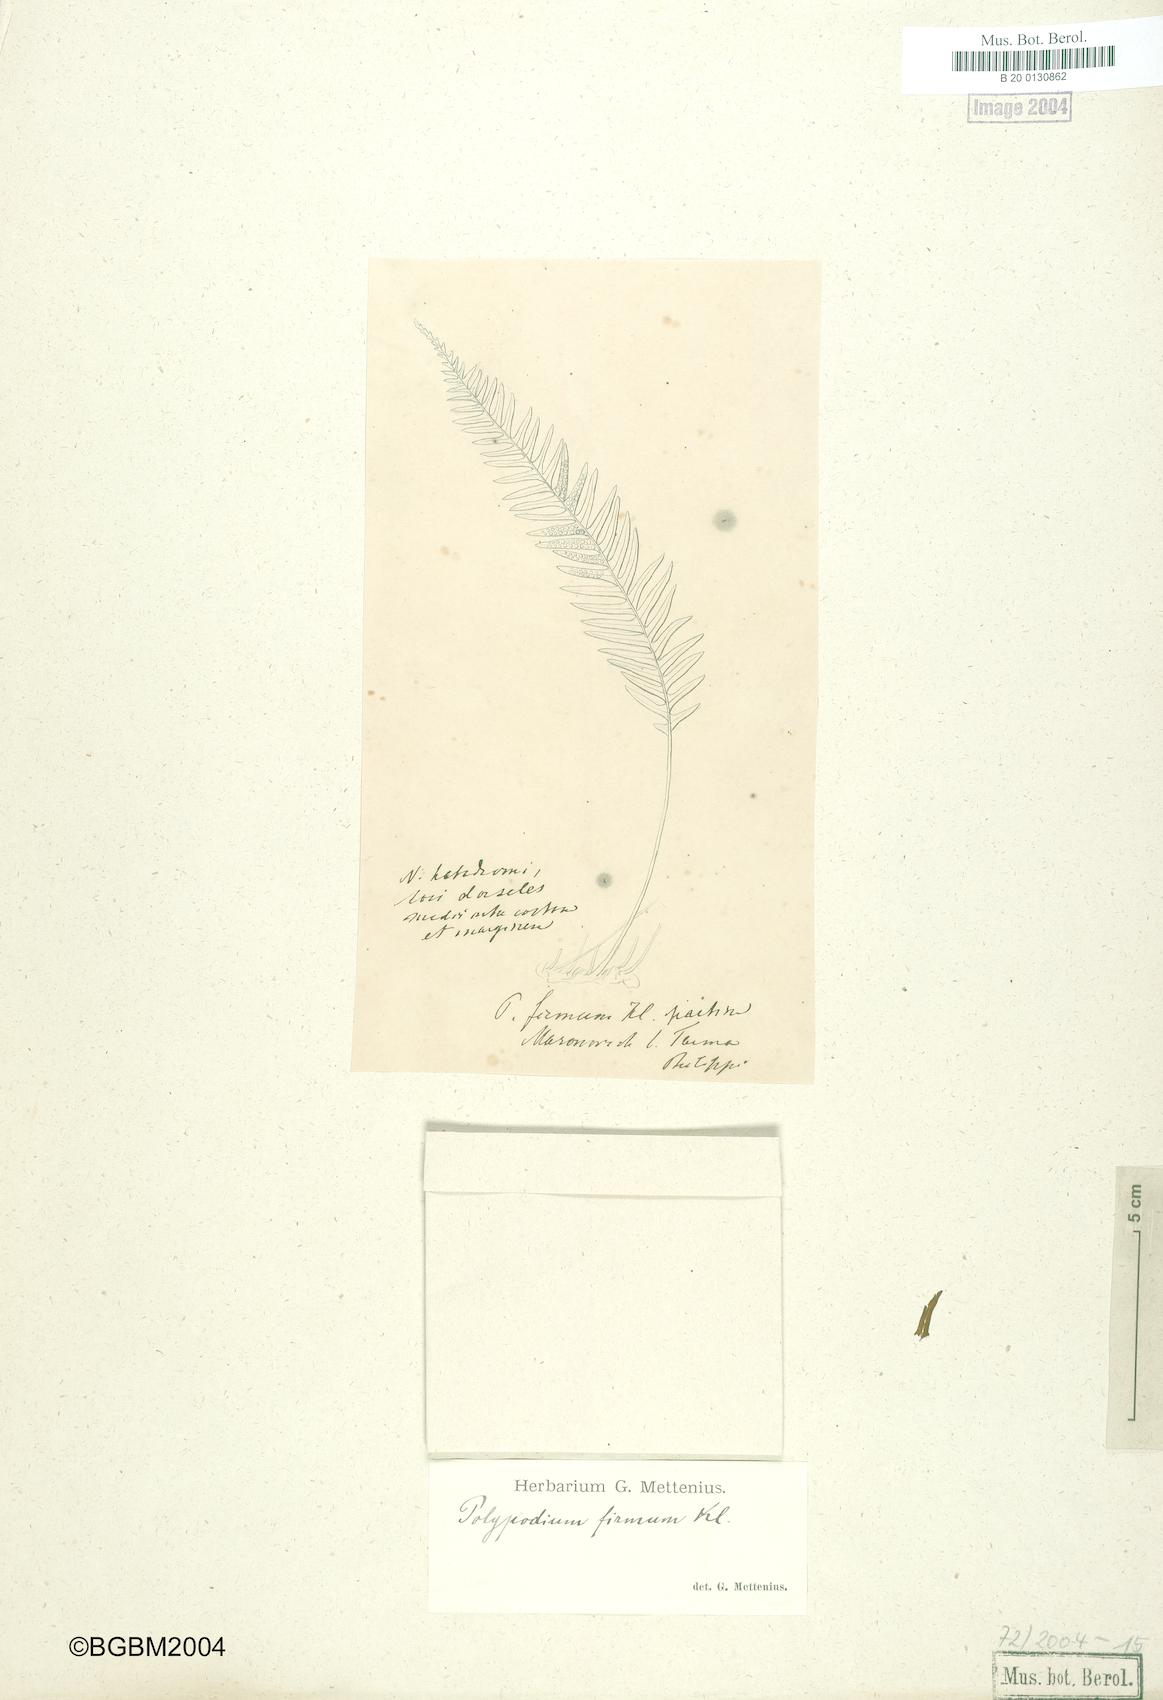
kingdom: Plantae
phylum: Tracheophyta
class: Polypodiopsida
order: Polypodiales
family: Polypodiaceae
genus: Melpomene
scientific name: Melpomene firma
